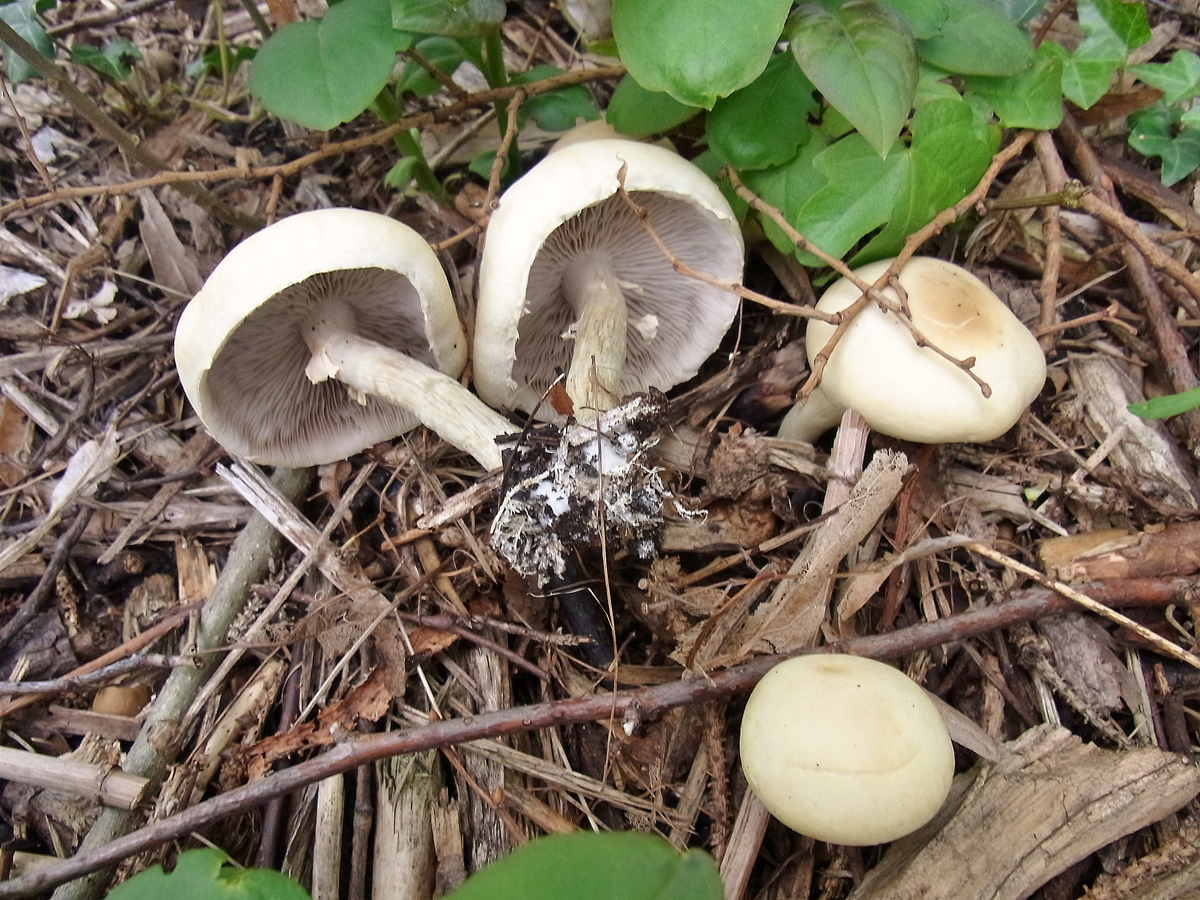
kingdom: Fungi
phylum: Basidiomycota
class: Agaricomycetes
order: Agaricales
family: Strophariaceae
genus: Agrocybe
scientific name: Agrocybe praecox
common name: Spring fieldcap
